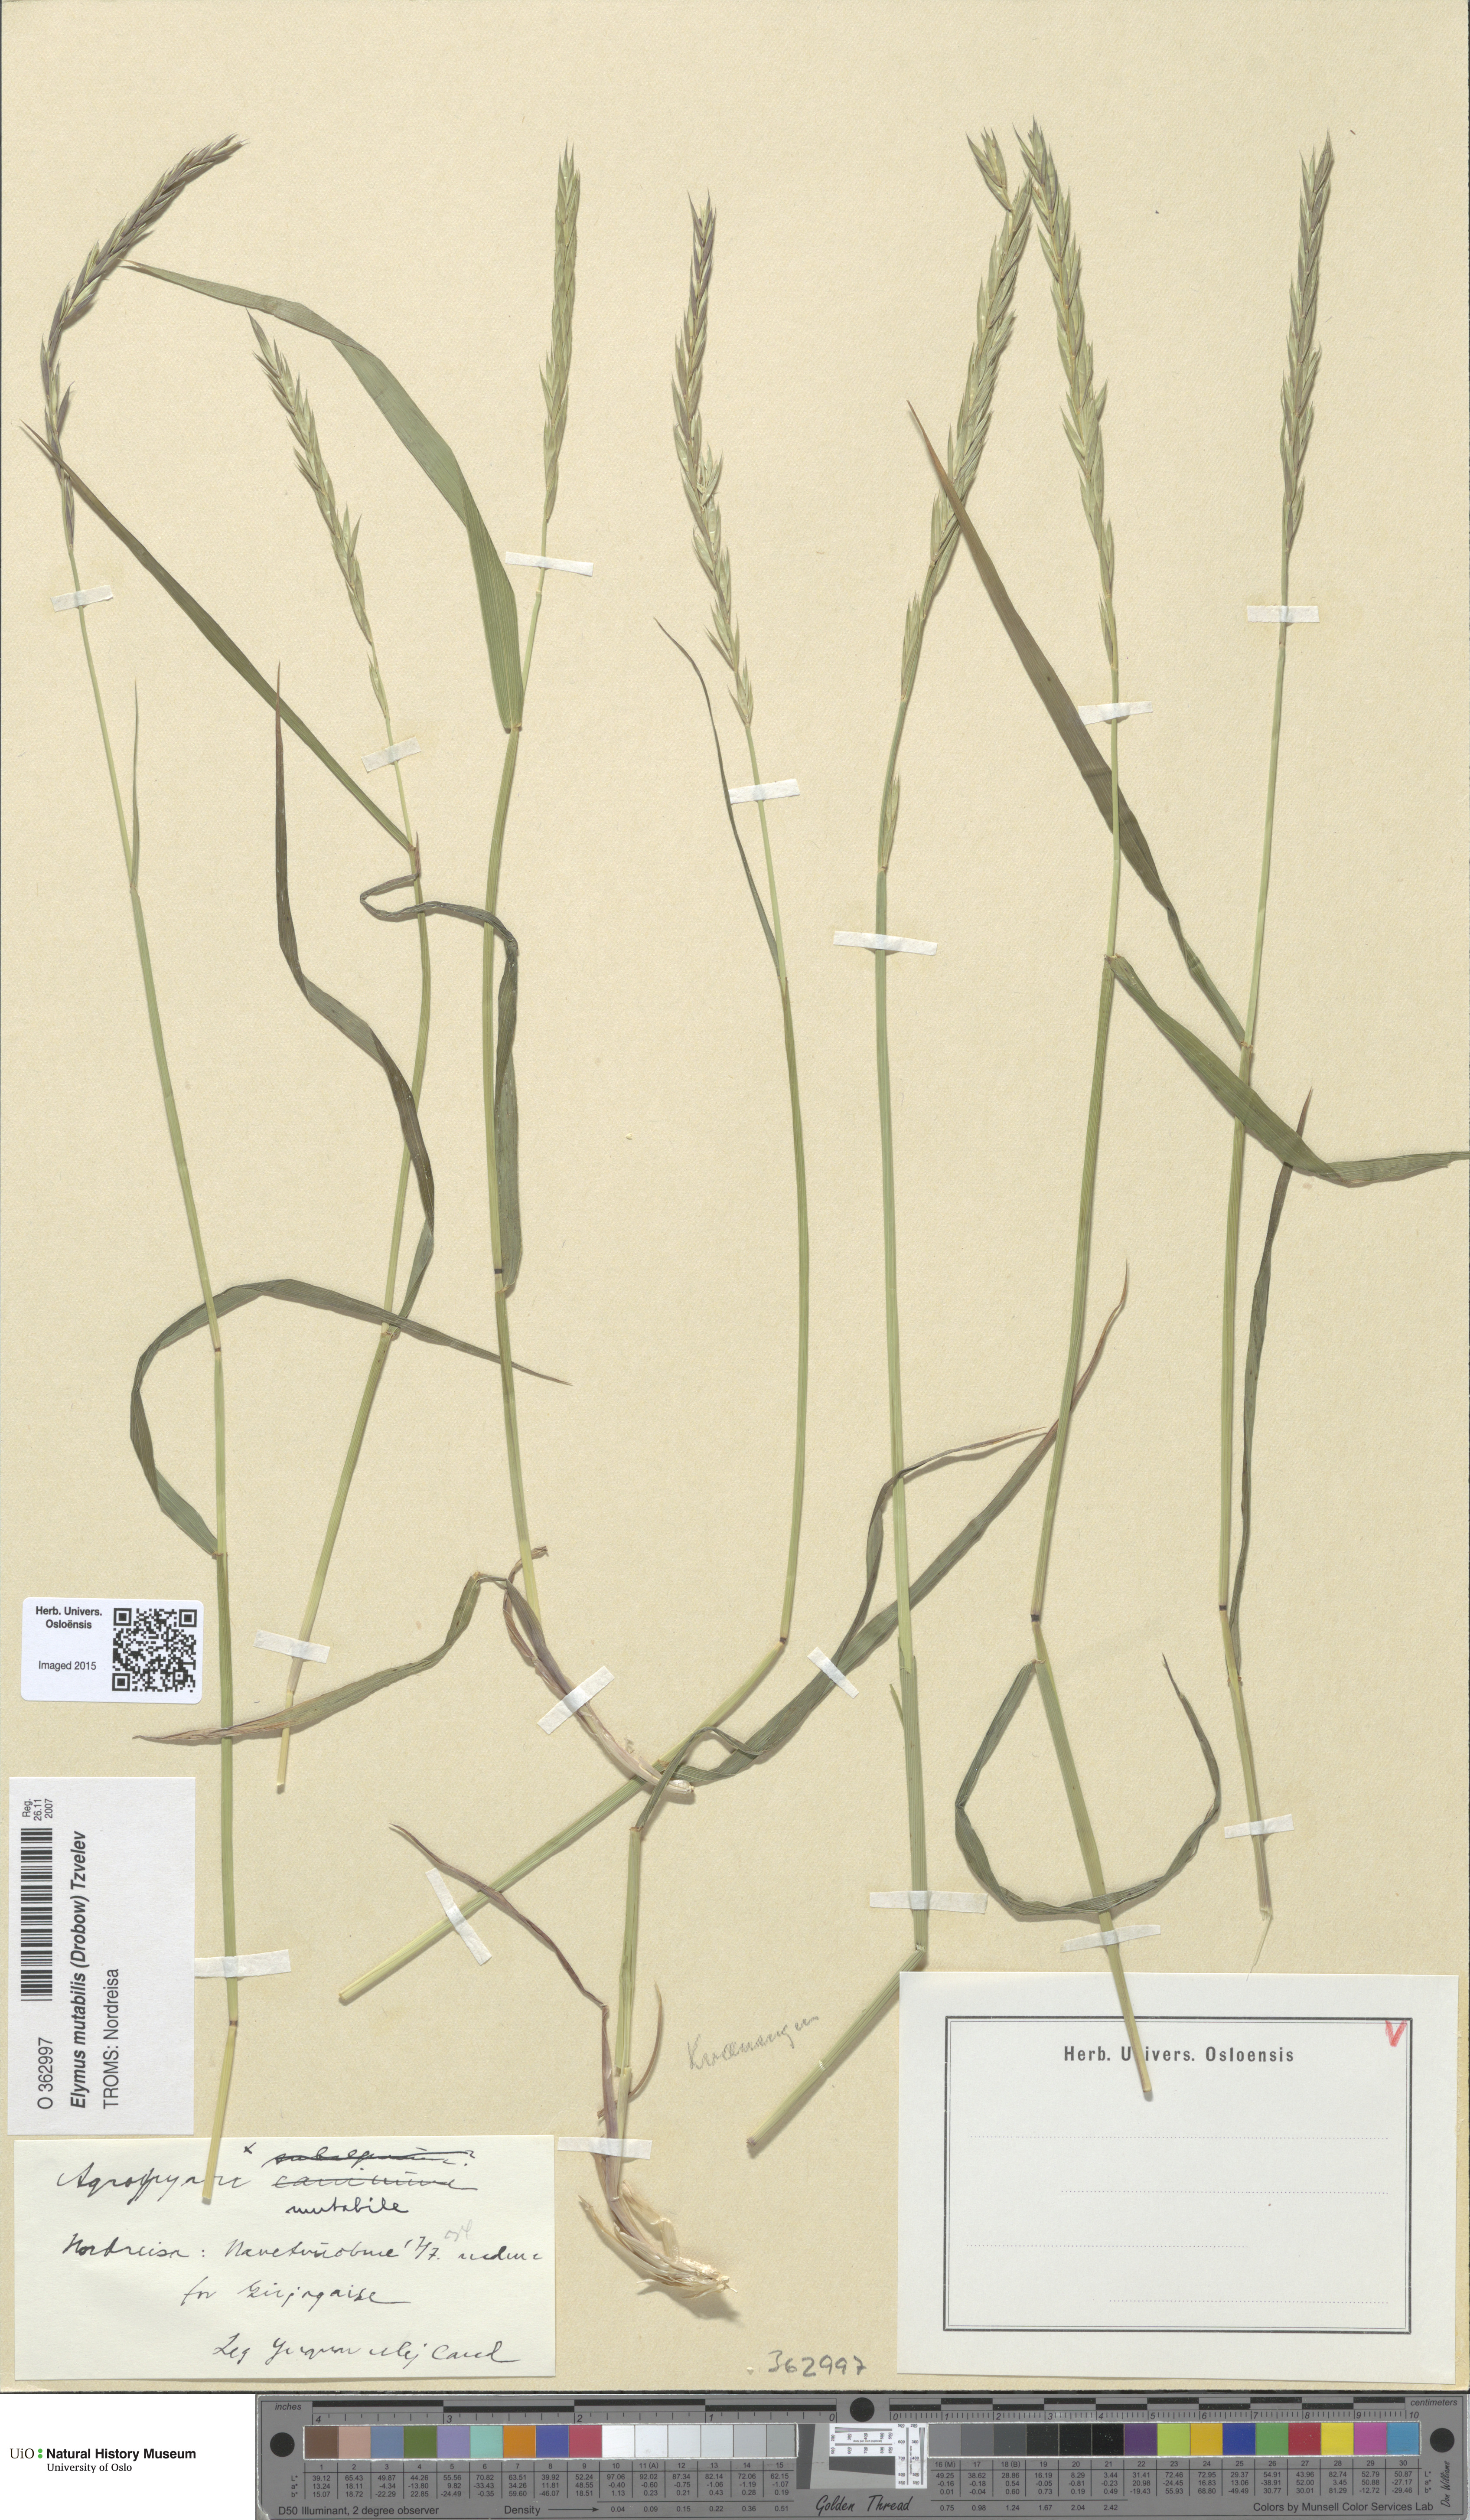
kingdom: Plantae
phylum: Tracheophyta
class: Liliopsida
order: Poales
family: Poaceae
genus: Elymus
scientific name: Elymus mutabilis
